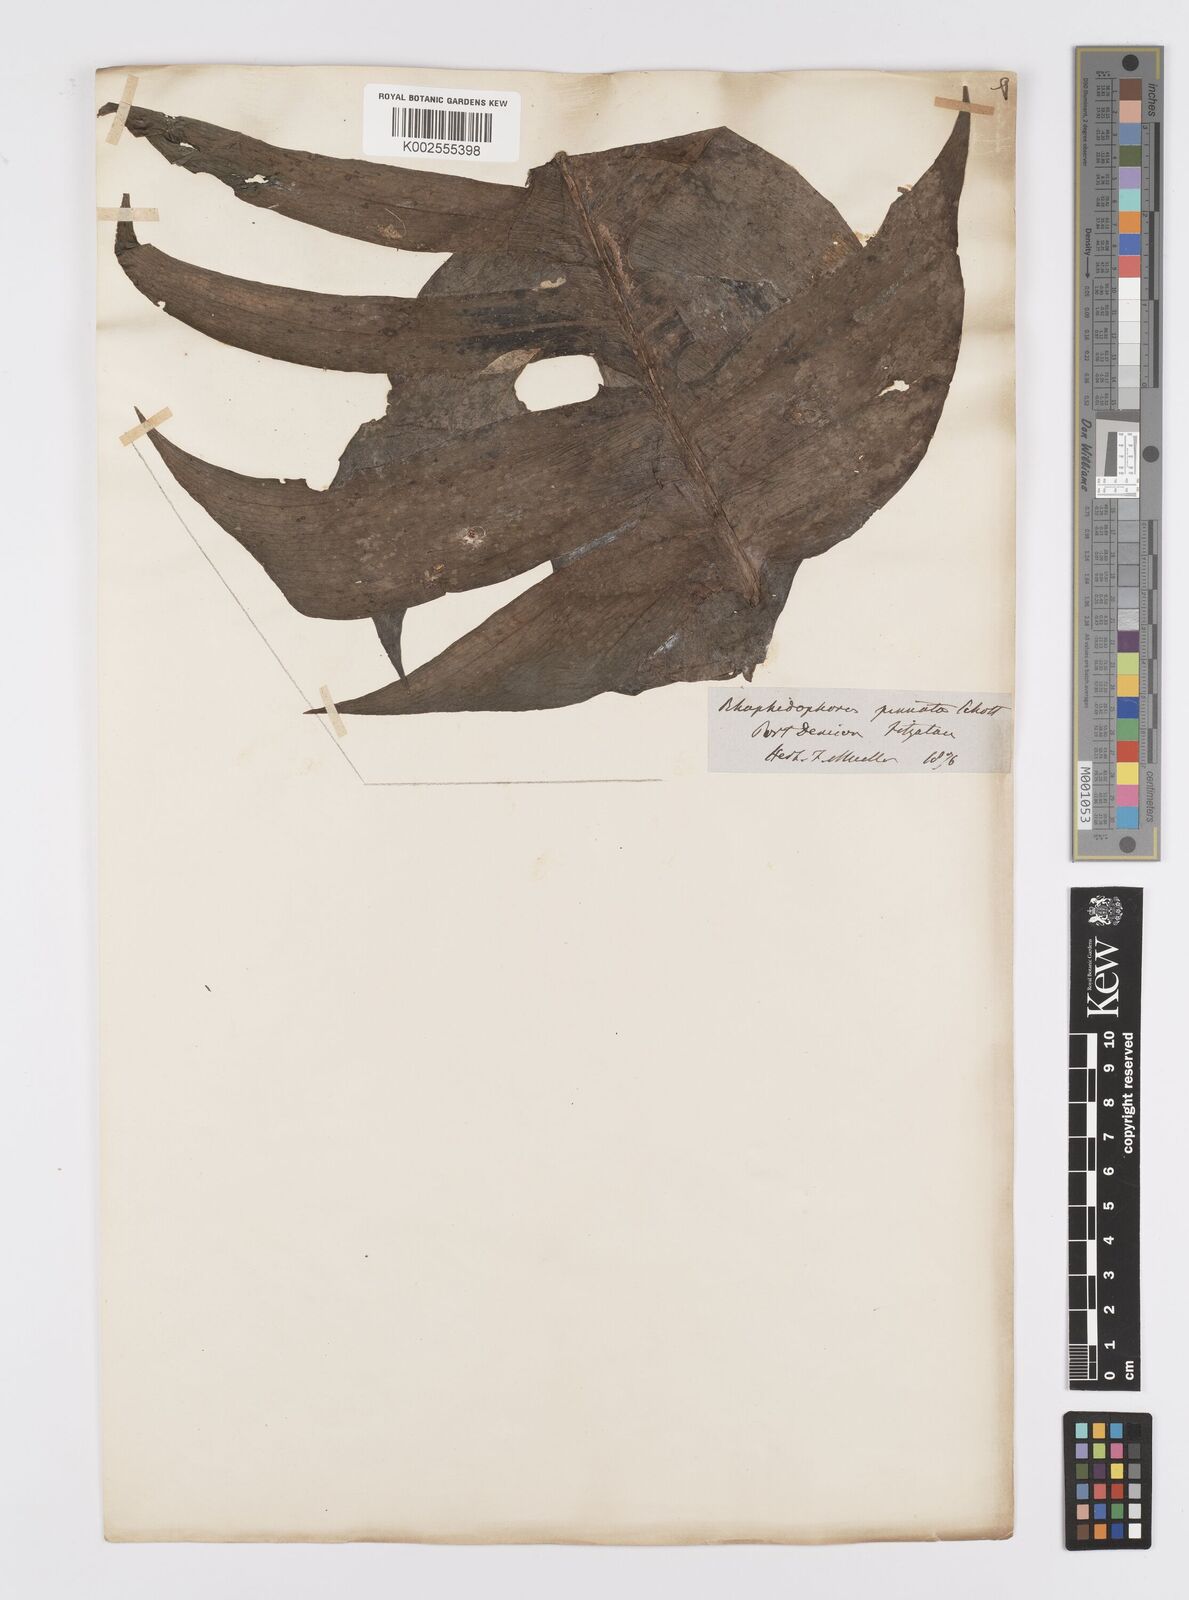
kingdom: Plantae
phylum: Tracheophyta
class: Liliopsida
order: Alismatales
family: Araceae
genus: Epipremnum
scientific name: Epipremnum pinnatum
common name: Centipede tongavine
